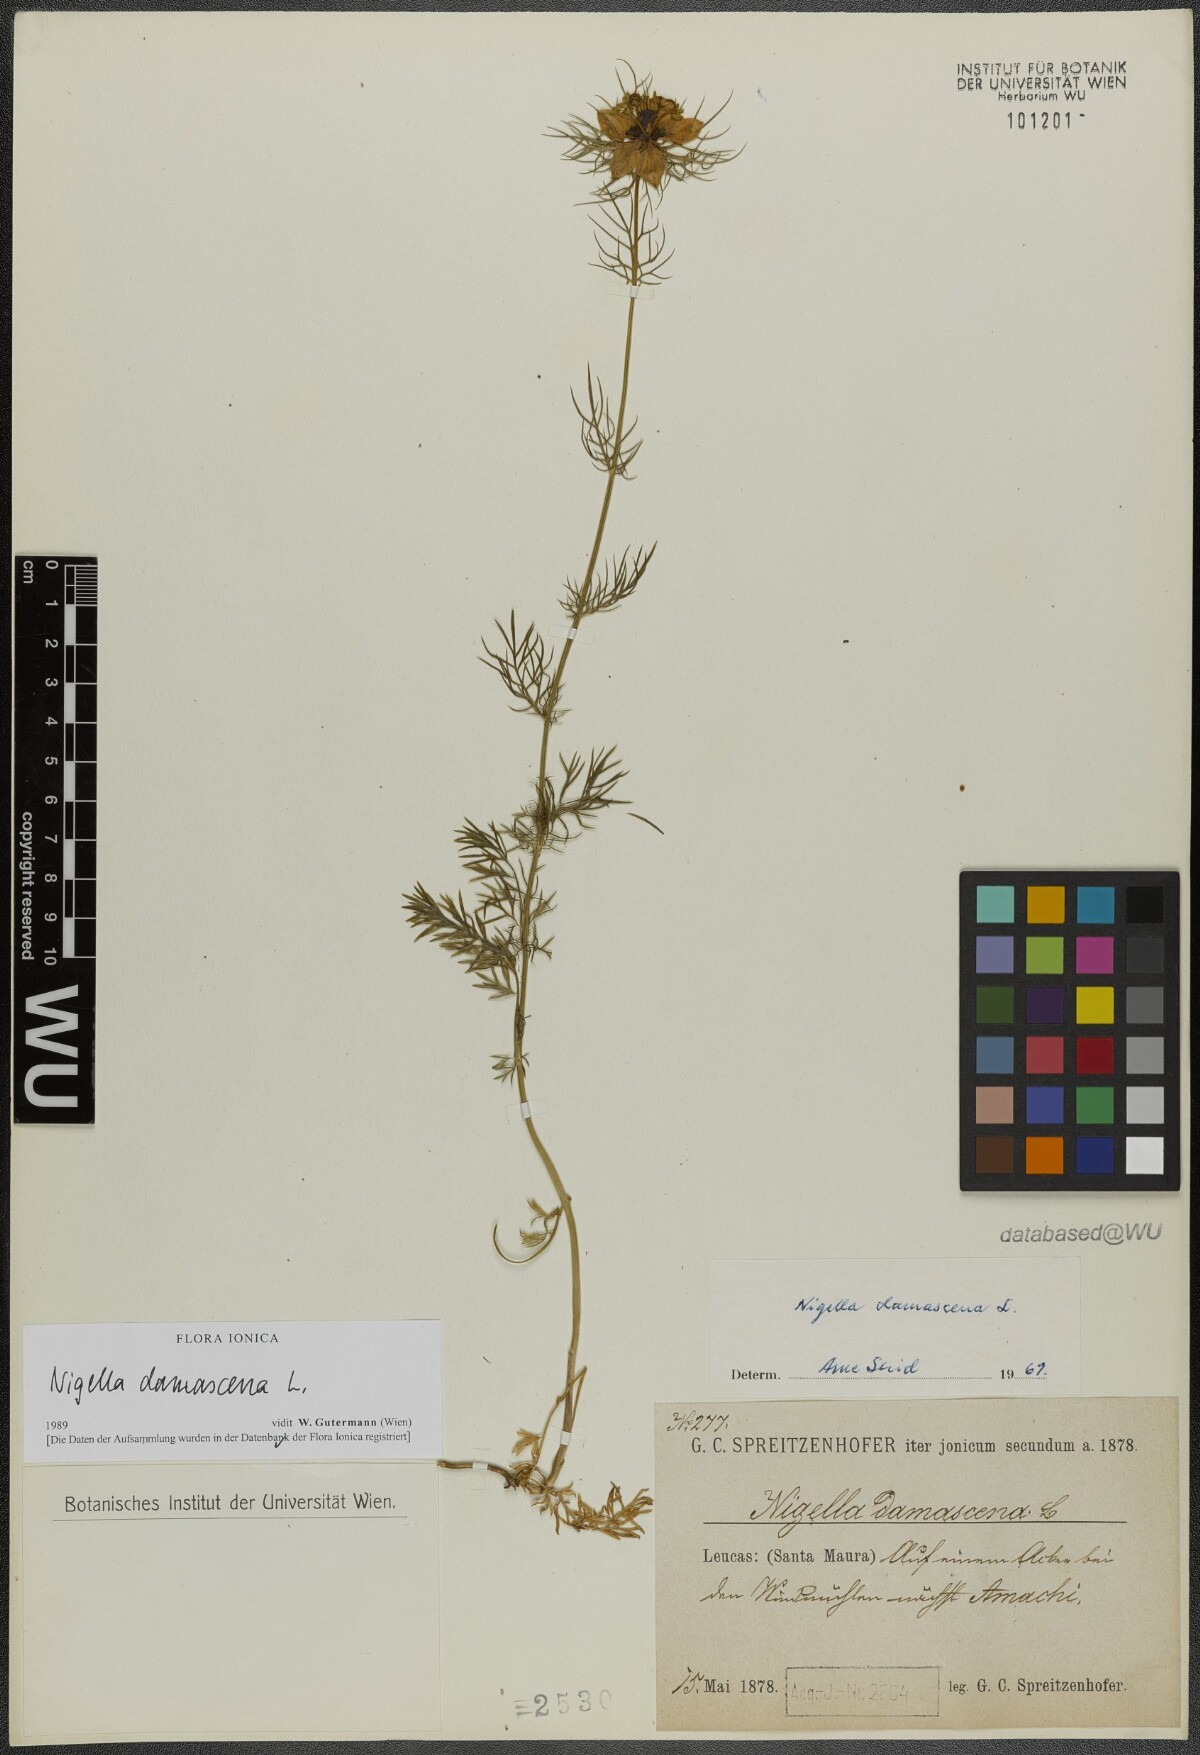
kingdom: Plantae
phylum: Tracheophyta
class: Magnoliopsida
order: Ranunculales
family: Ranunculaceae
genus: Nigella
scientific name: Nigella damascena
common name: Love-in-a-mist
